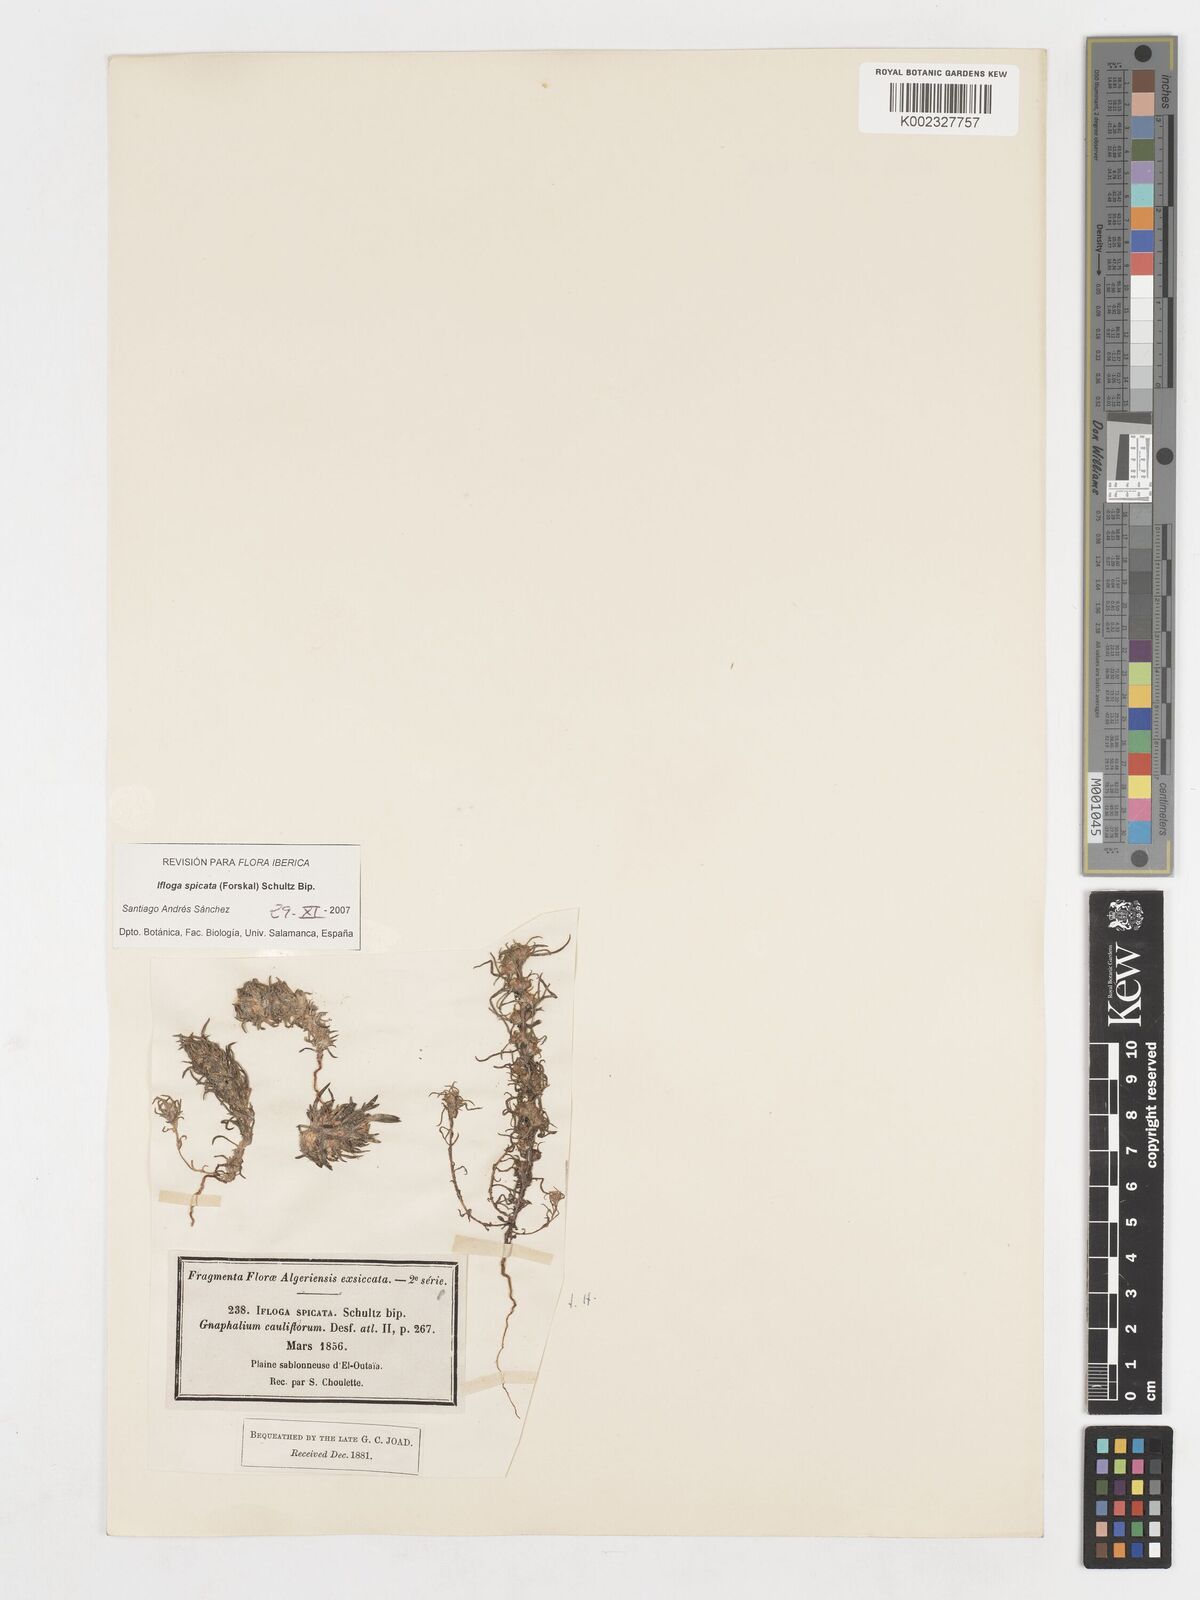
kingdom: Plantae
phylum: Tracheophyta
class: Magnoliopsida
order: Asterales
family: Asteraceae
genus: Ifloga
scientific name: Ifloga spicata
